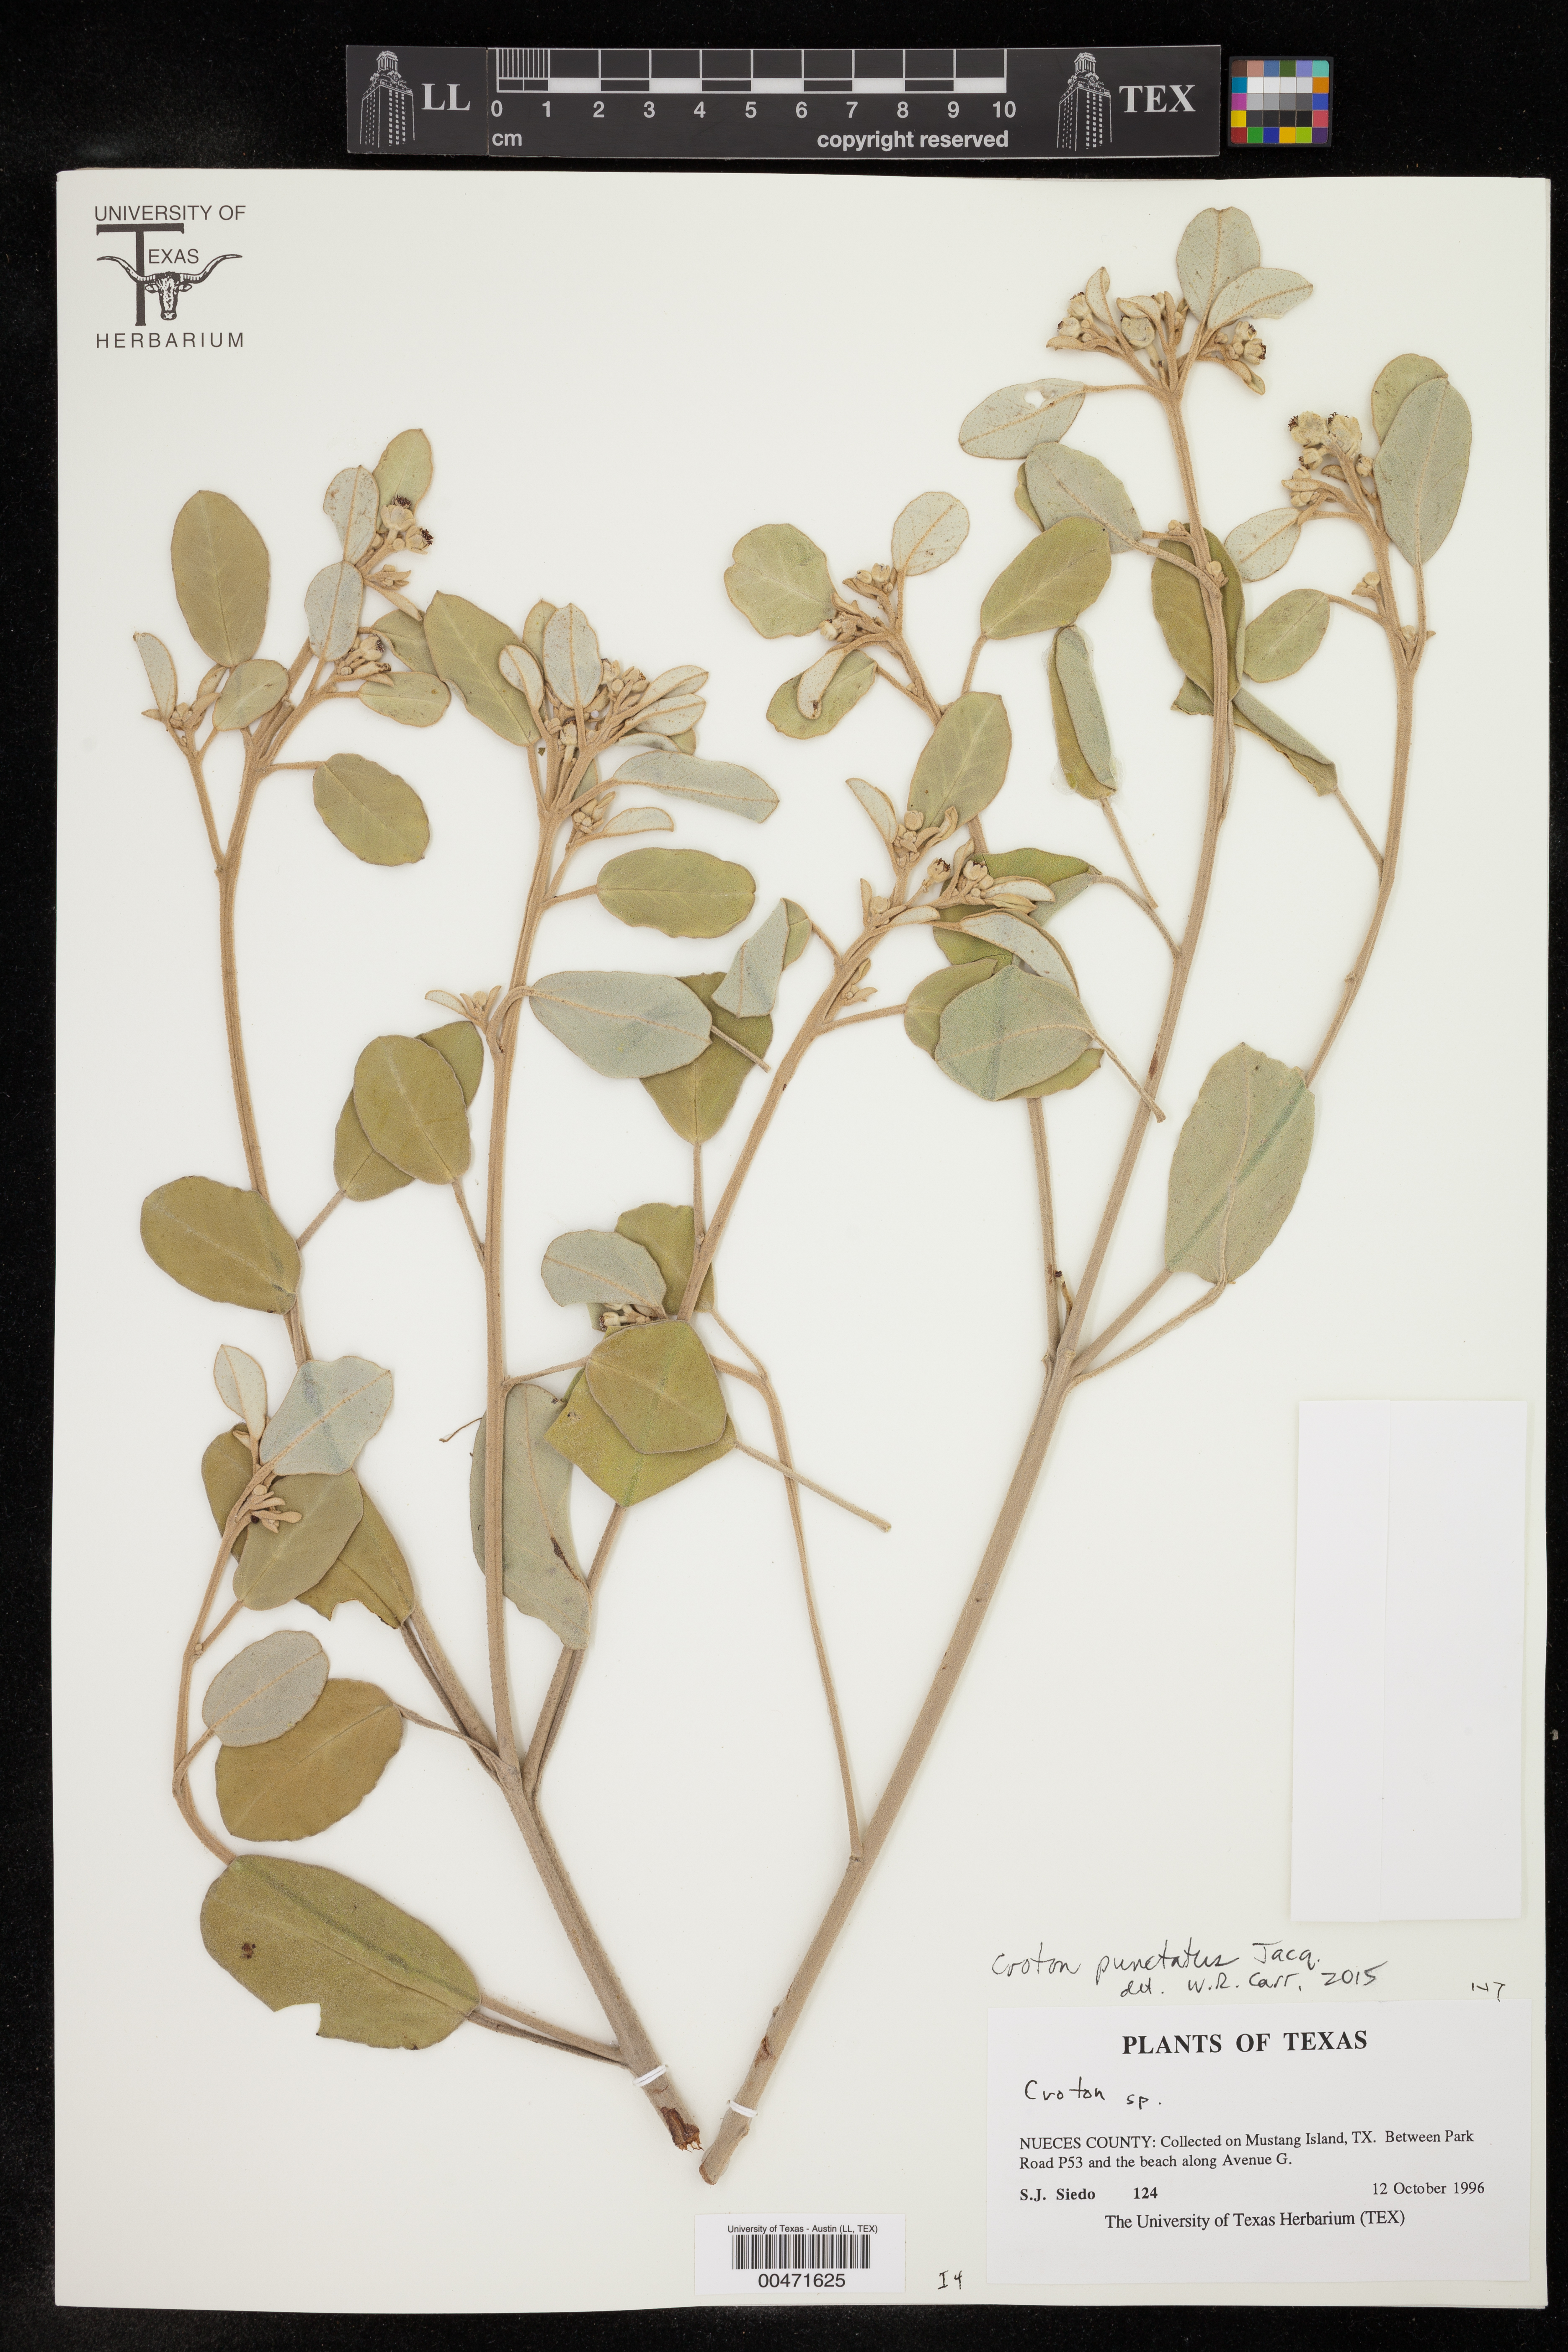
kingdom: Plantae
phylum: Tracheophyta
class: Magnoliopsida
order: Malpighiales
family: Euphorbiaceae
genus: Croton
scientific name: Croton punctatus
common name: Beach-tea
